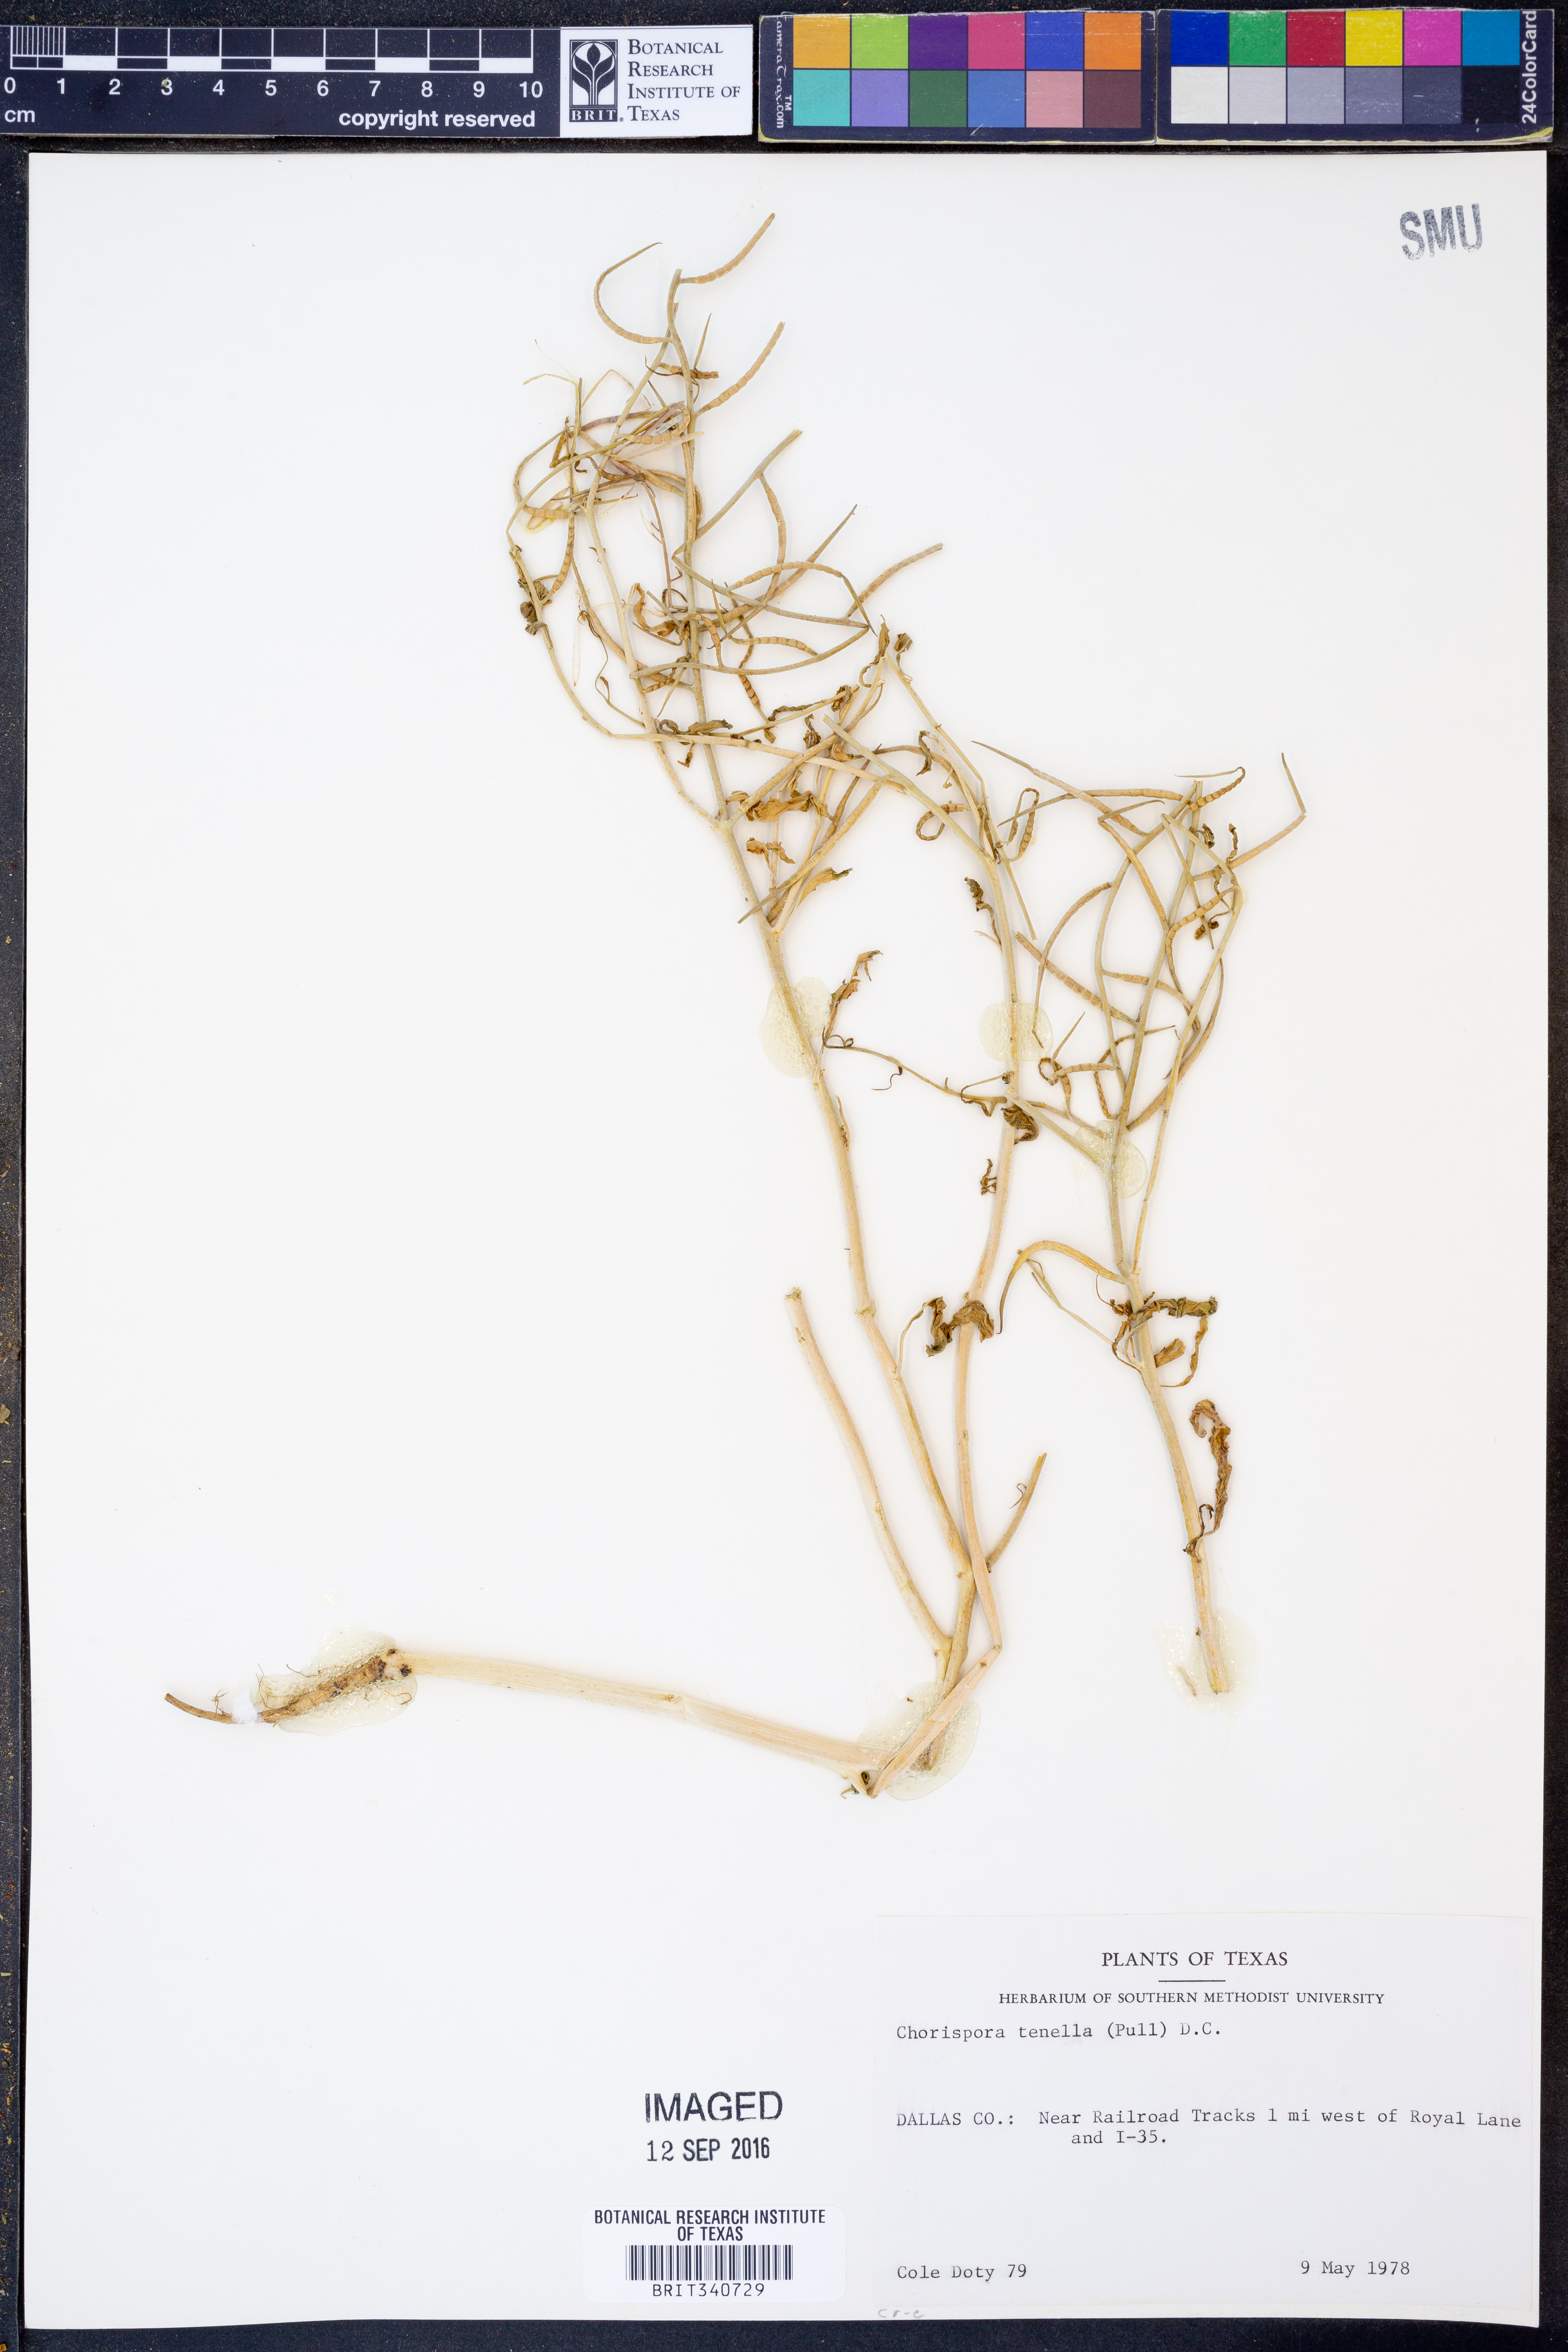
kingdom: Plantae
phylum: Tracheophyta
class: Magnoliopsida
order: Brassicales
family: Brassicaceae
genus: Chorispora
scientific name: Chorispora tenella
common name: Crossflower
